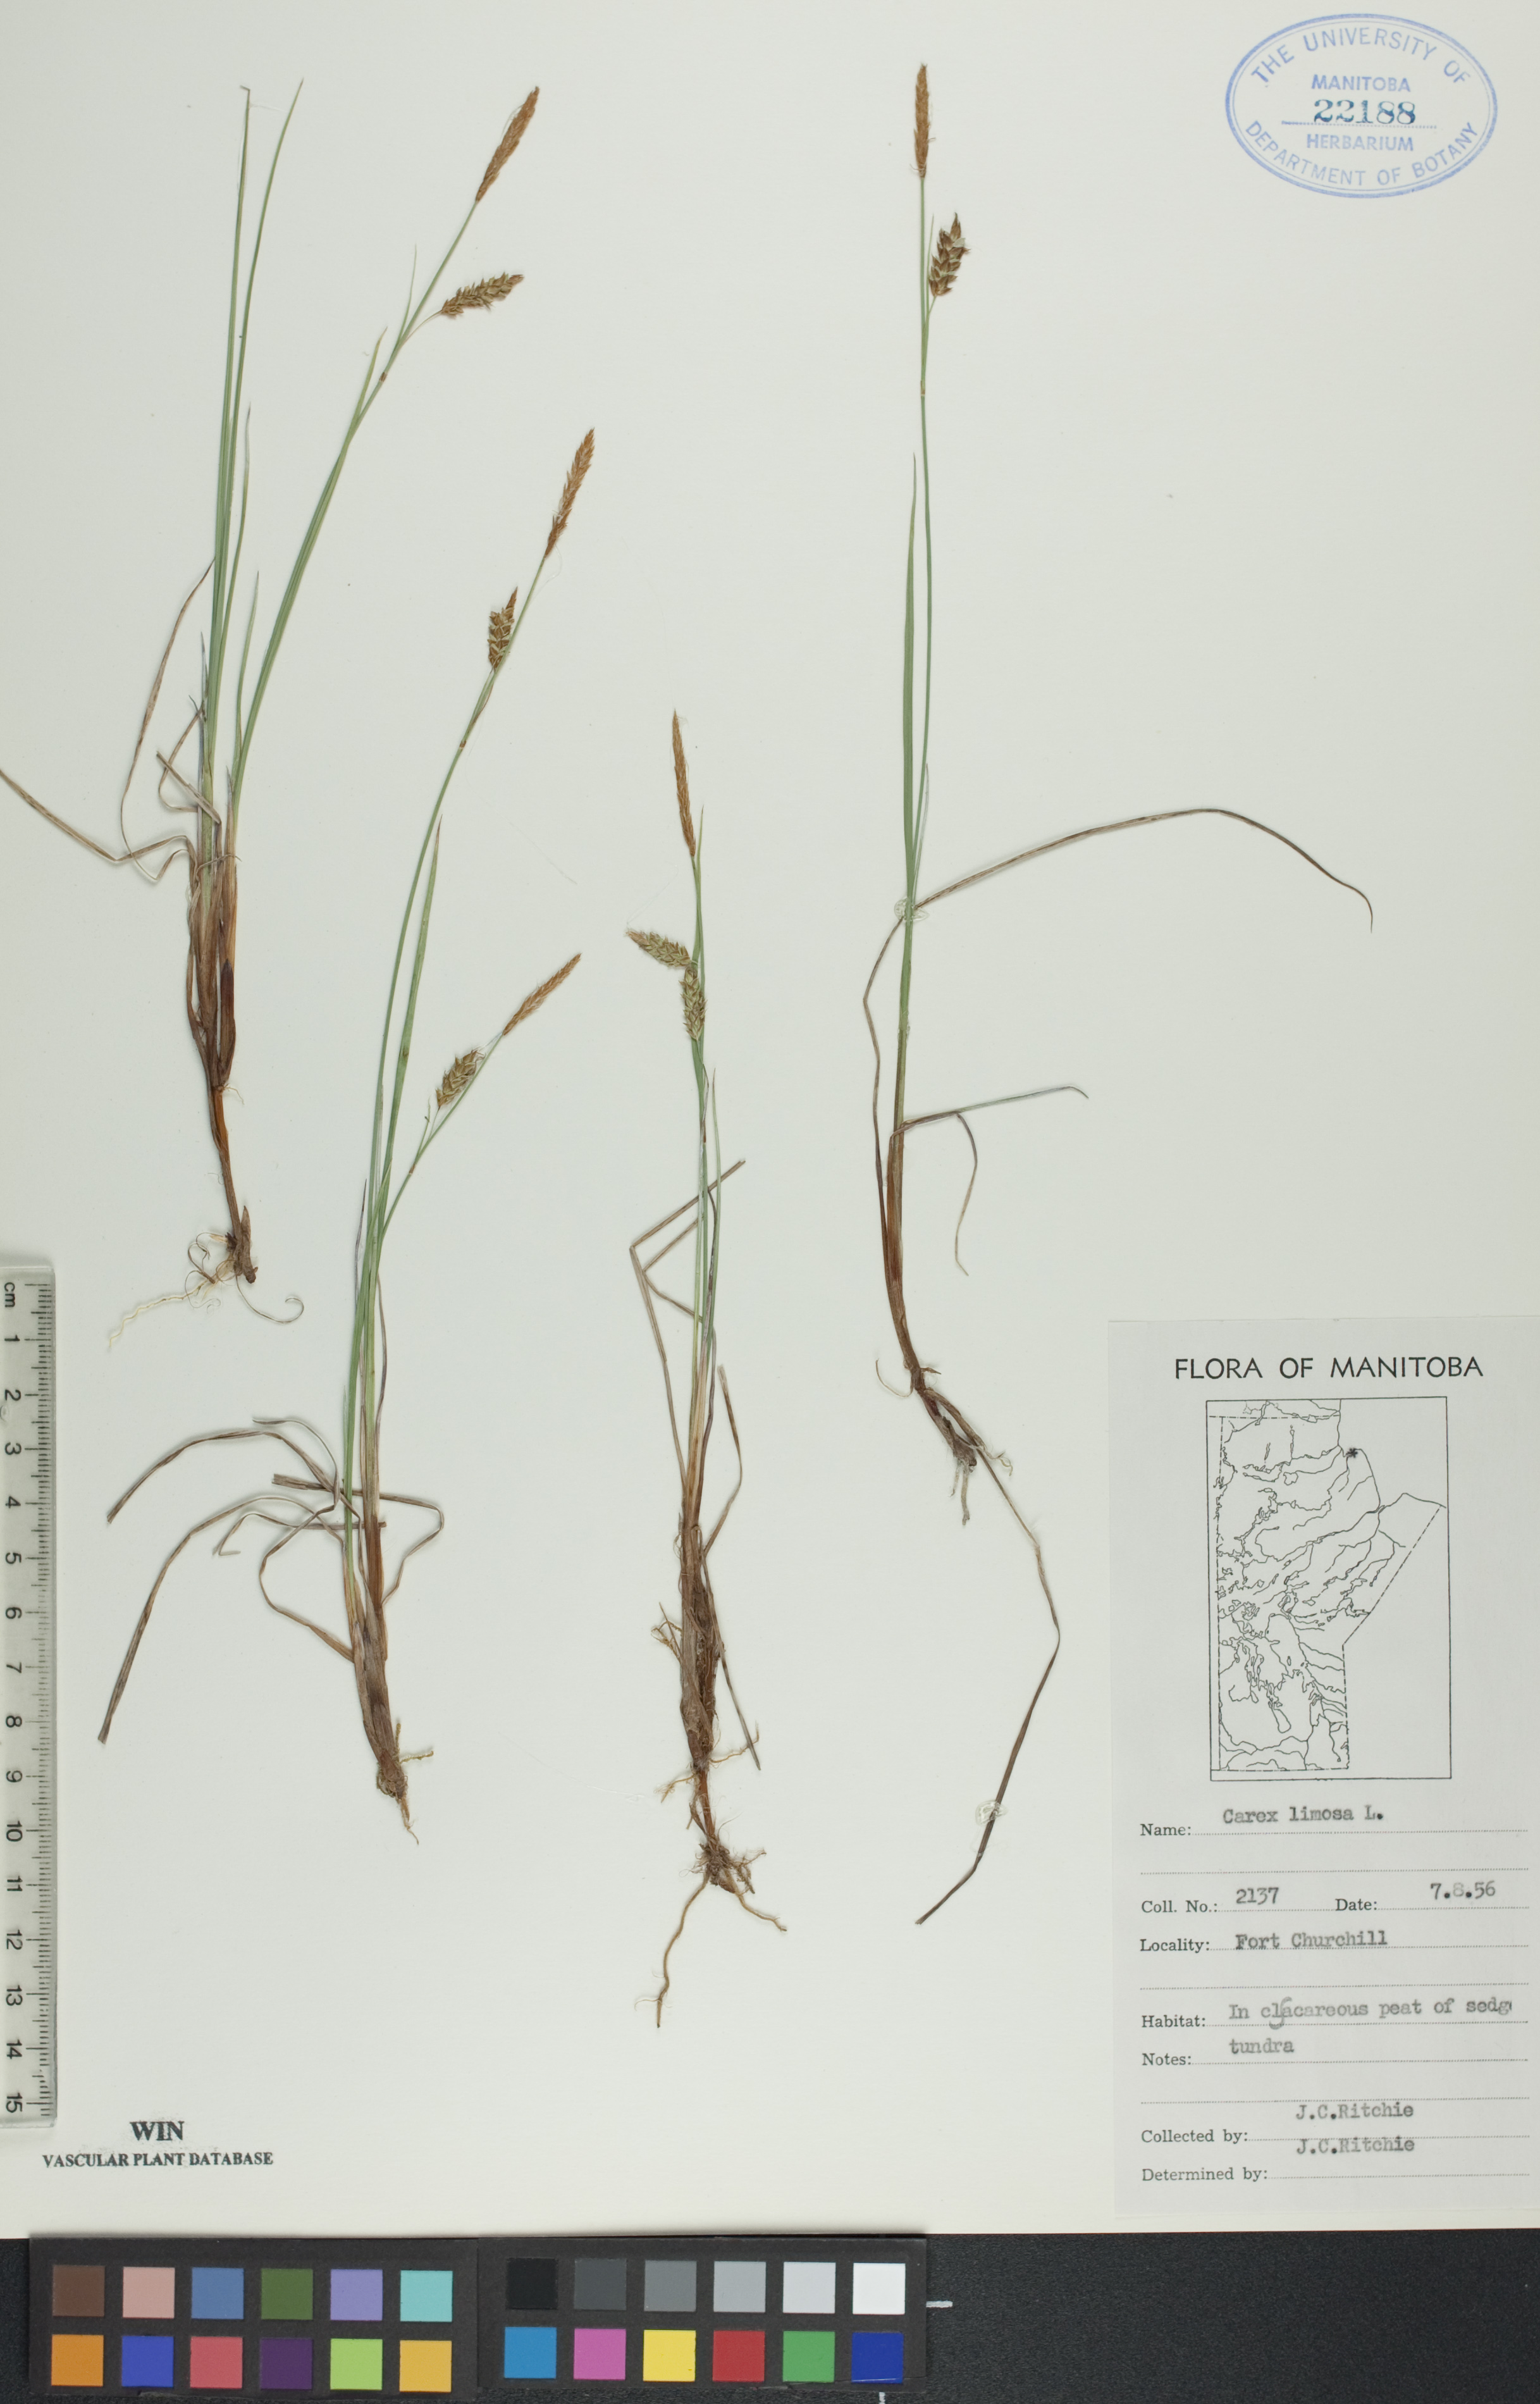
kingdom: Plantae
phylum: Tracheophyta
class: Liliopsida
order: Poales
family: Cyperaceae
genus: Carex
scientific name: Carex limosa
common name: Bog sedge
